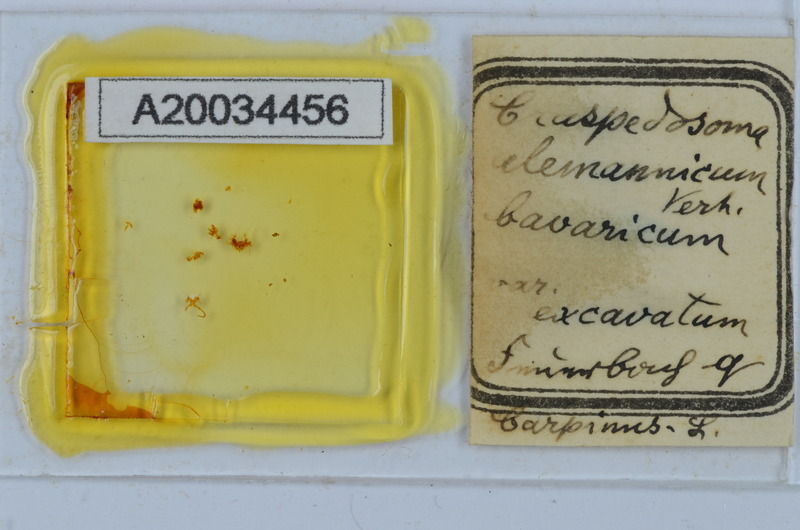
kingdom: Animalia
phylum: Arthropoda
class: Diplopoda
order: Chordeumatida
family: Craspedosomatidae
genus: Craspedosoma
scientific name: Craspedosoma rawlinsii
